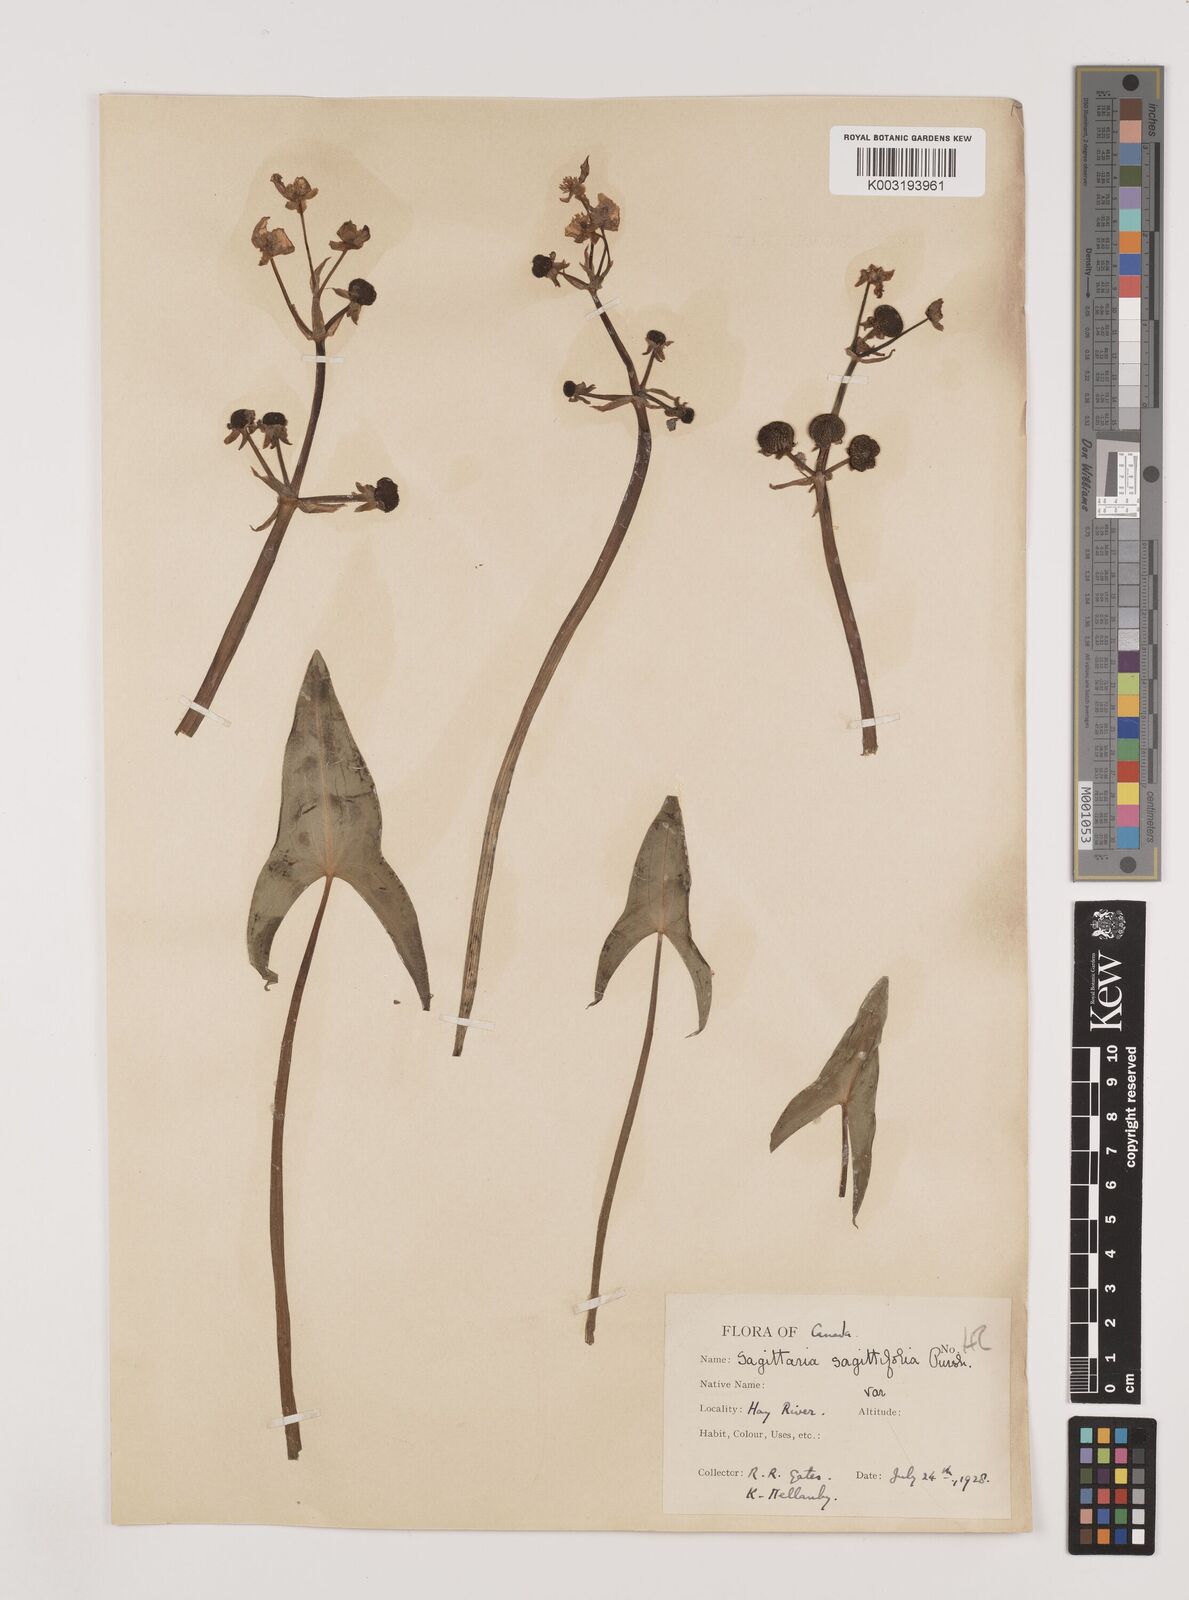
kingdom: Plantae
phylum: Tracheophyta
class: Liliopsida
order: Alismatales
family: Alismataceae
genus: Sagittaria
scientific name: Sagittaria sagittifolia
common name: Arrowhead
